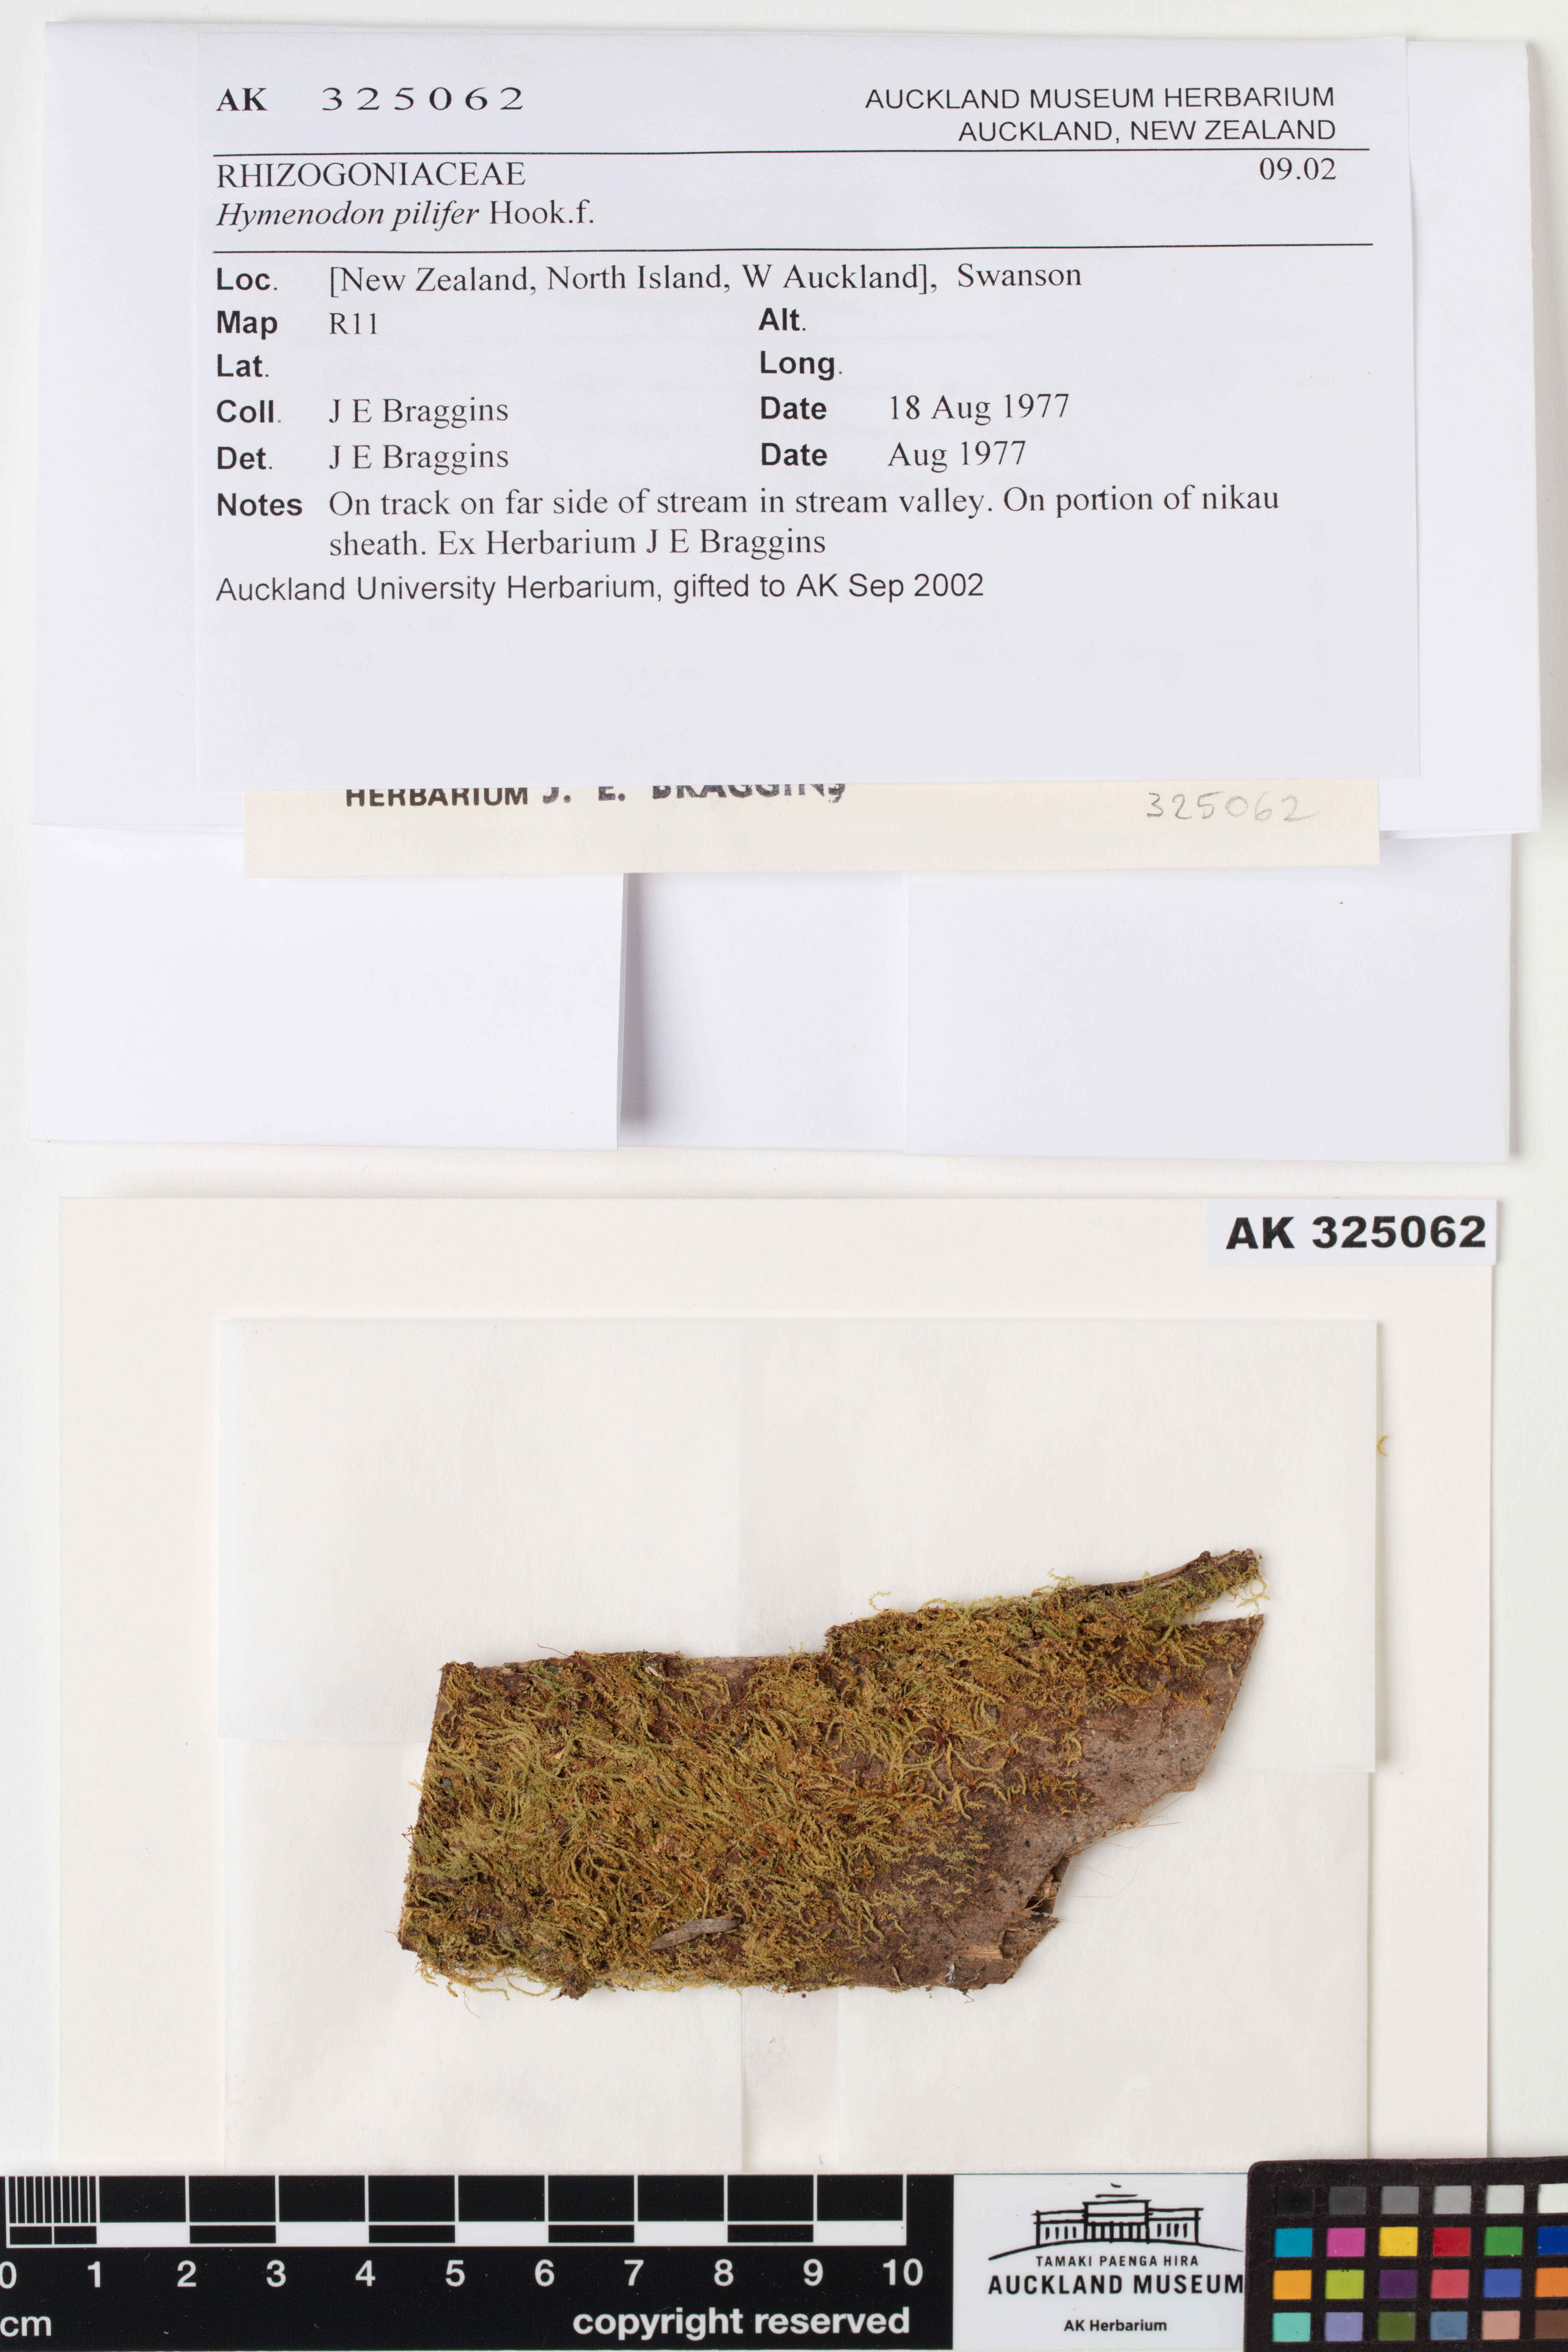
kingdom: Plantae
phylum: Bryophyta
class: Bryopsida
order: Orthodontiales
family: Orthodontiaceae
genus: Hymenodon
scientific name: Hymenodon pilifer
